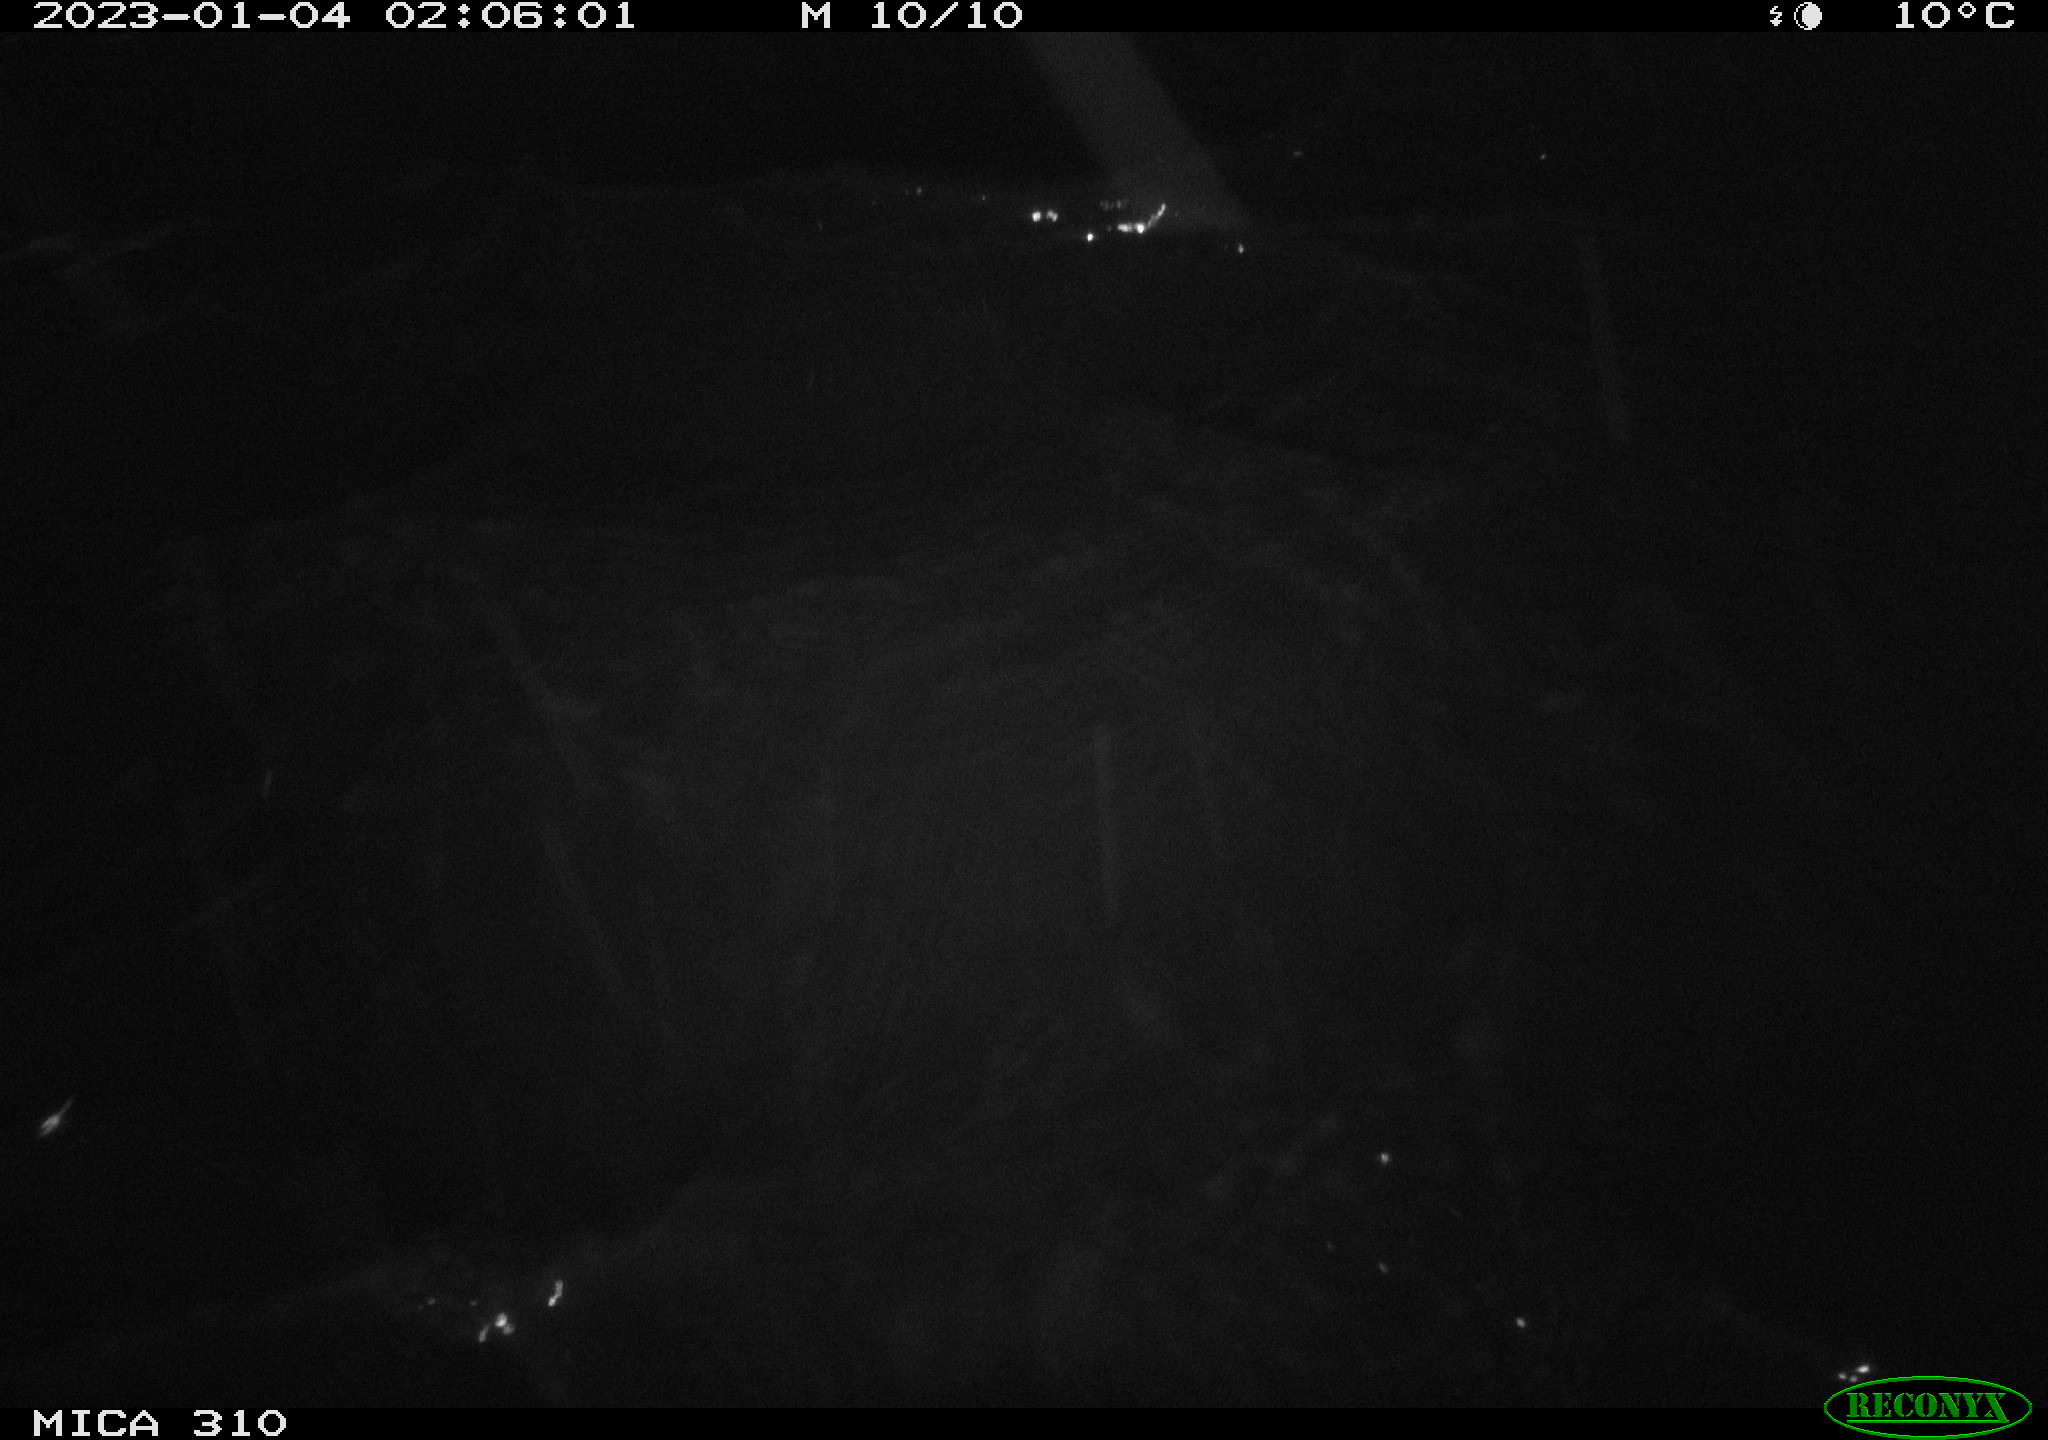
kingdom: Animalia
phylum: Chordata
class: Mammalia
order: Rodentia
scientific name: Rodentia
